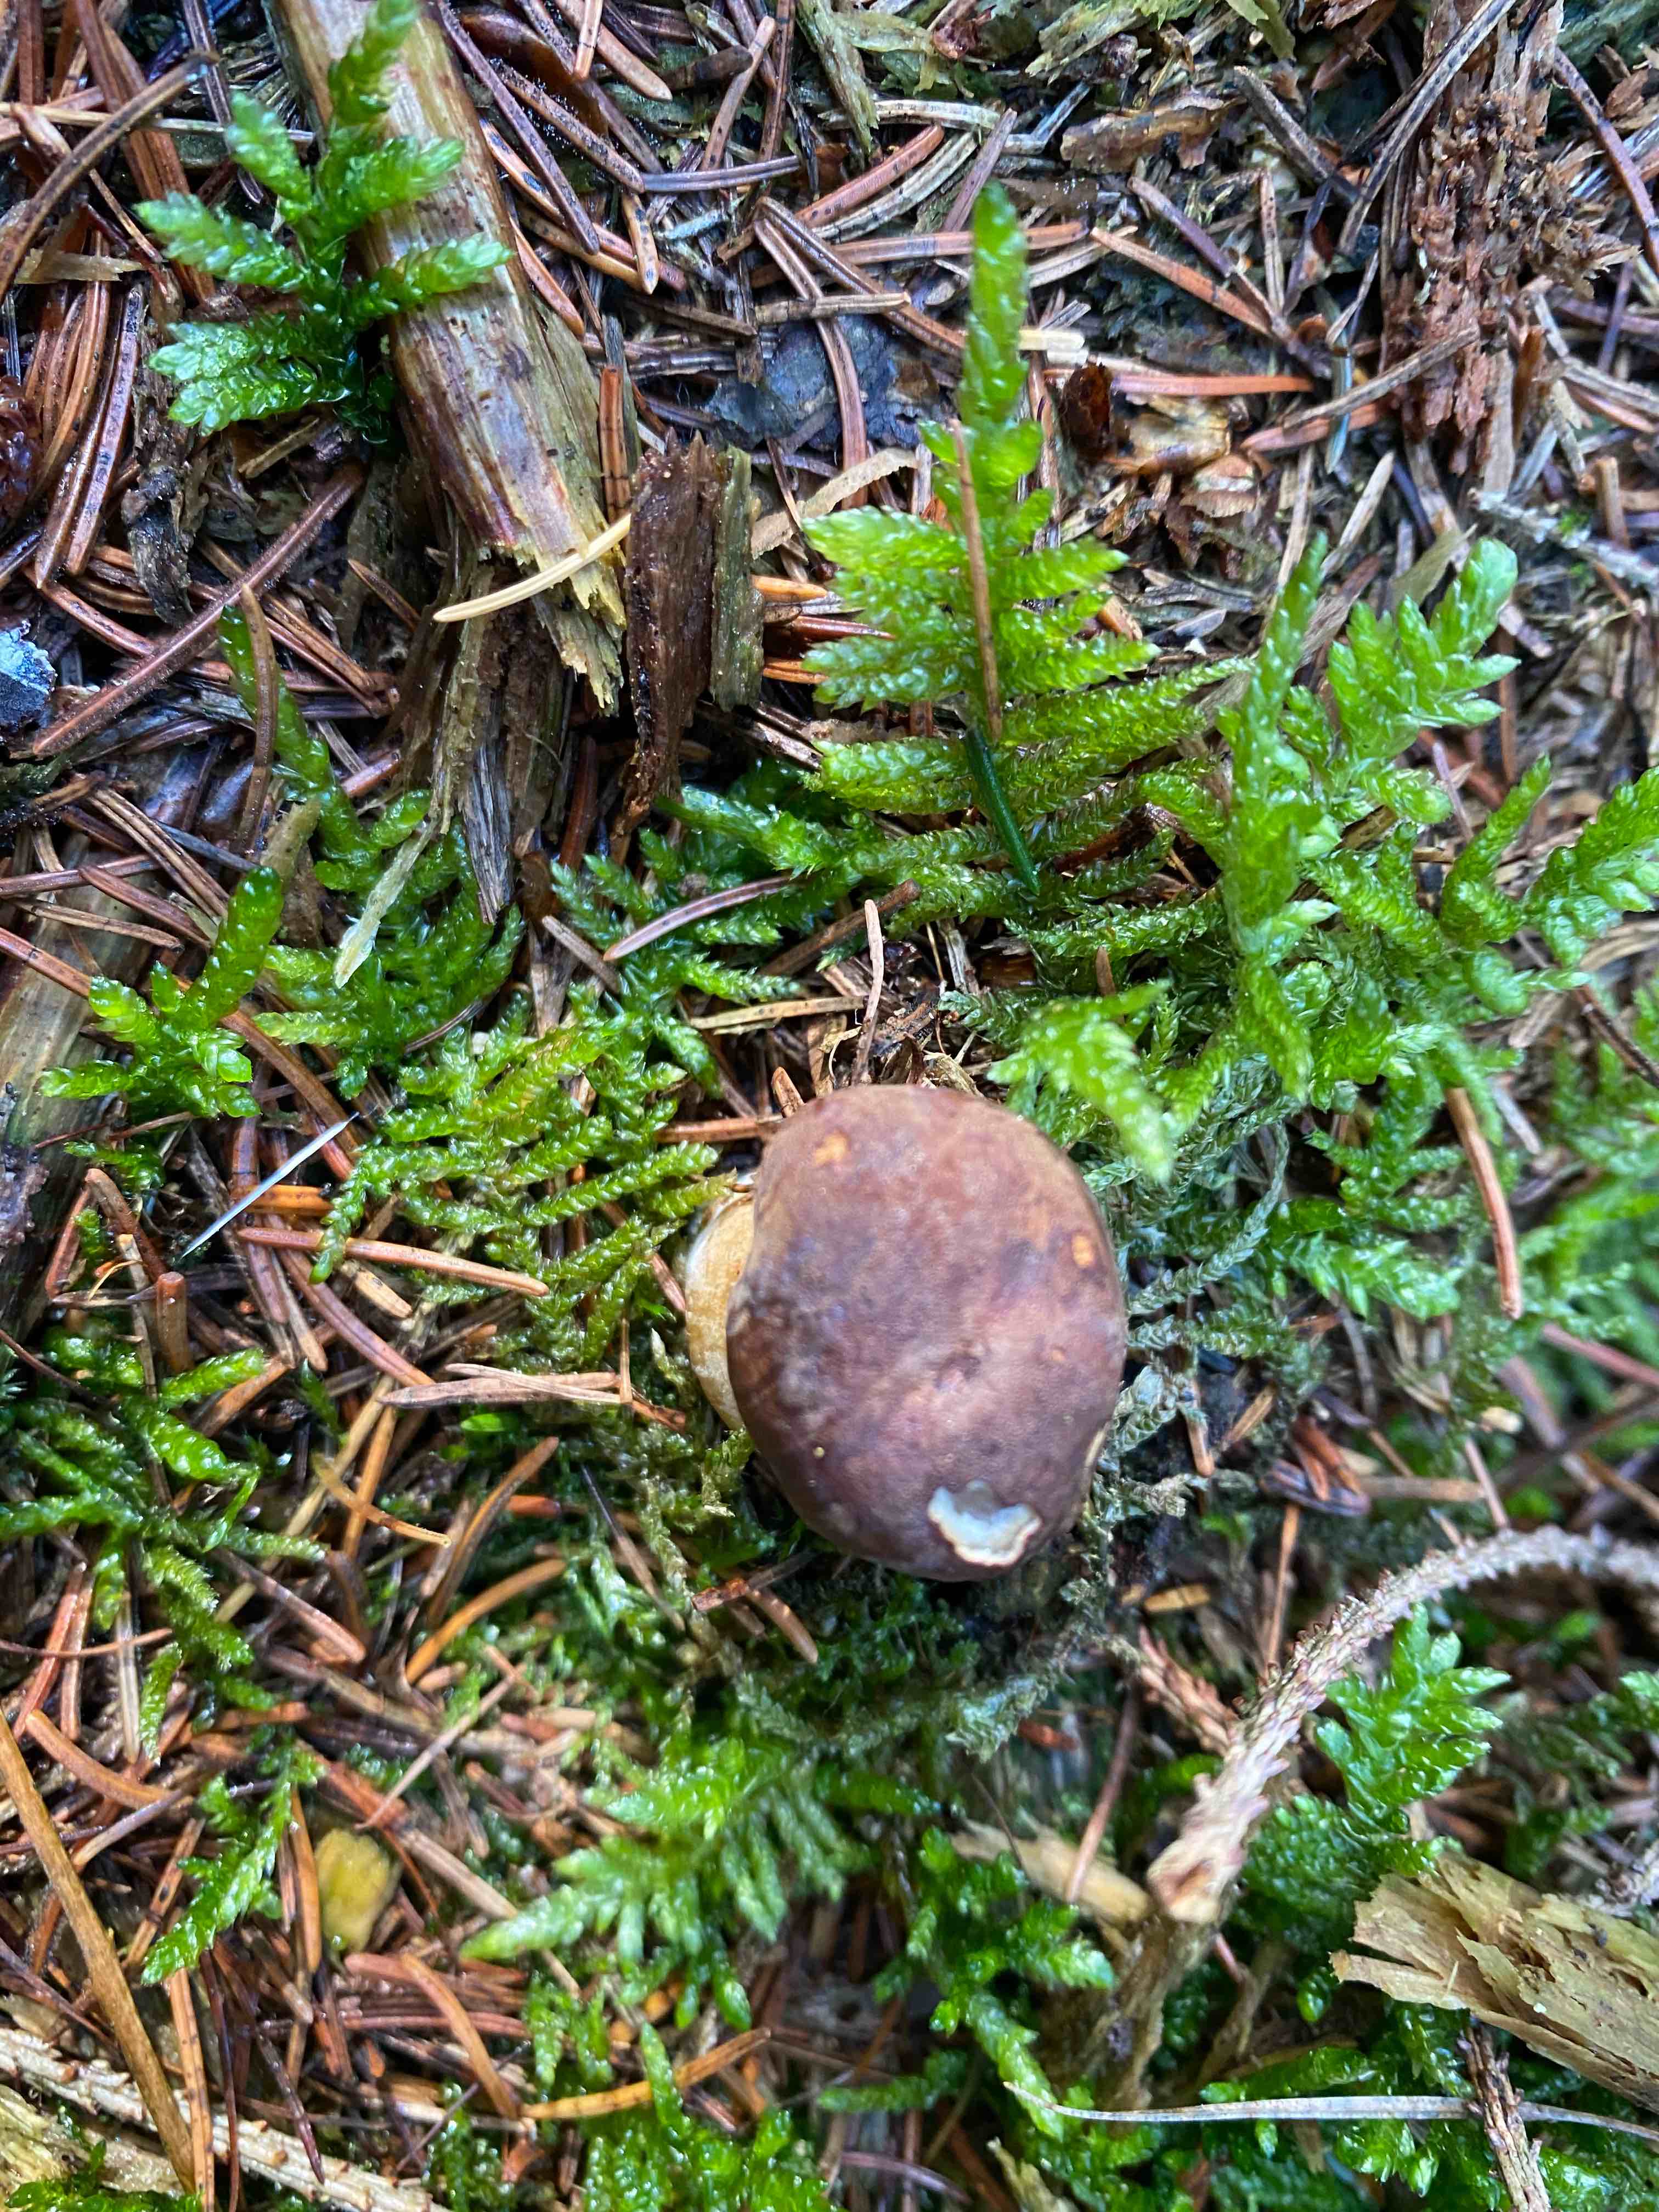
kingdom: Fungi
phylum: Basidiomycota
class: Agaricomycetes
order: Boletales
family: Boletaceae
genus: Imleria
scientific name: Imleria badia
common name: brunstokket rørhat
